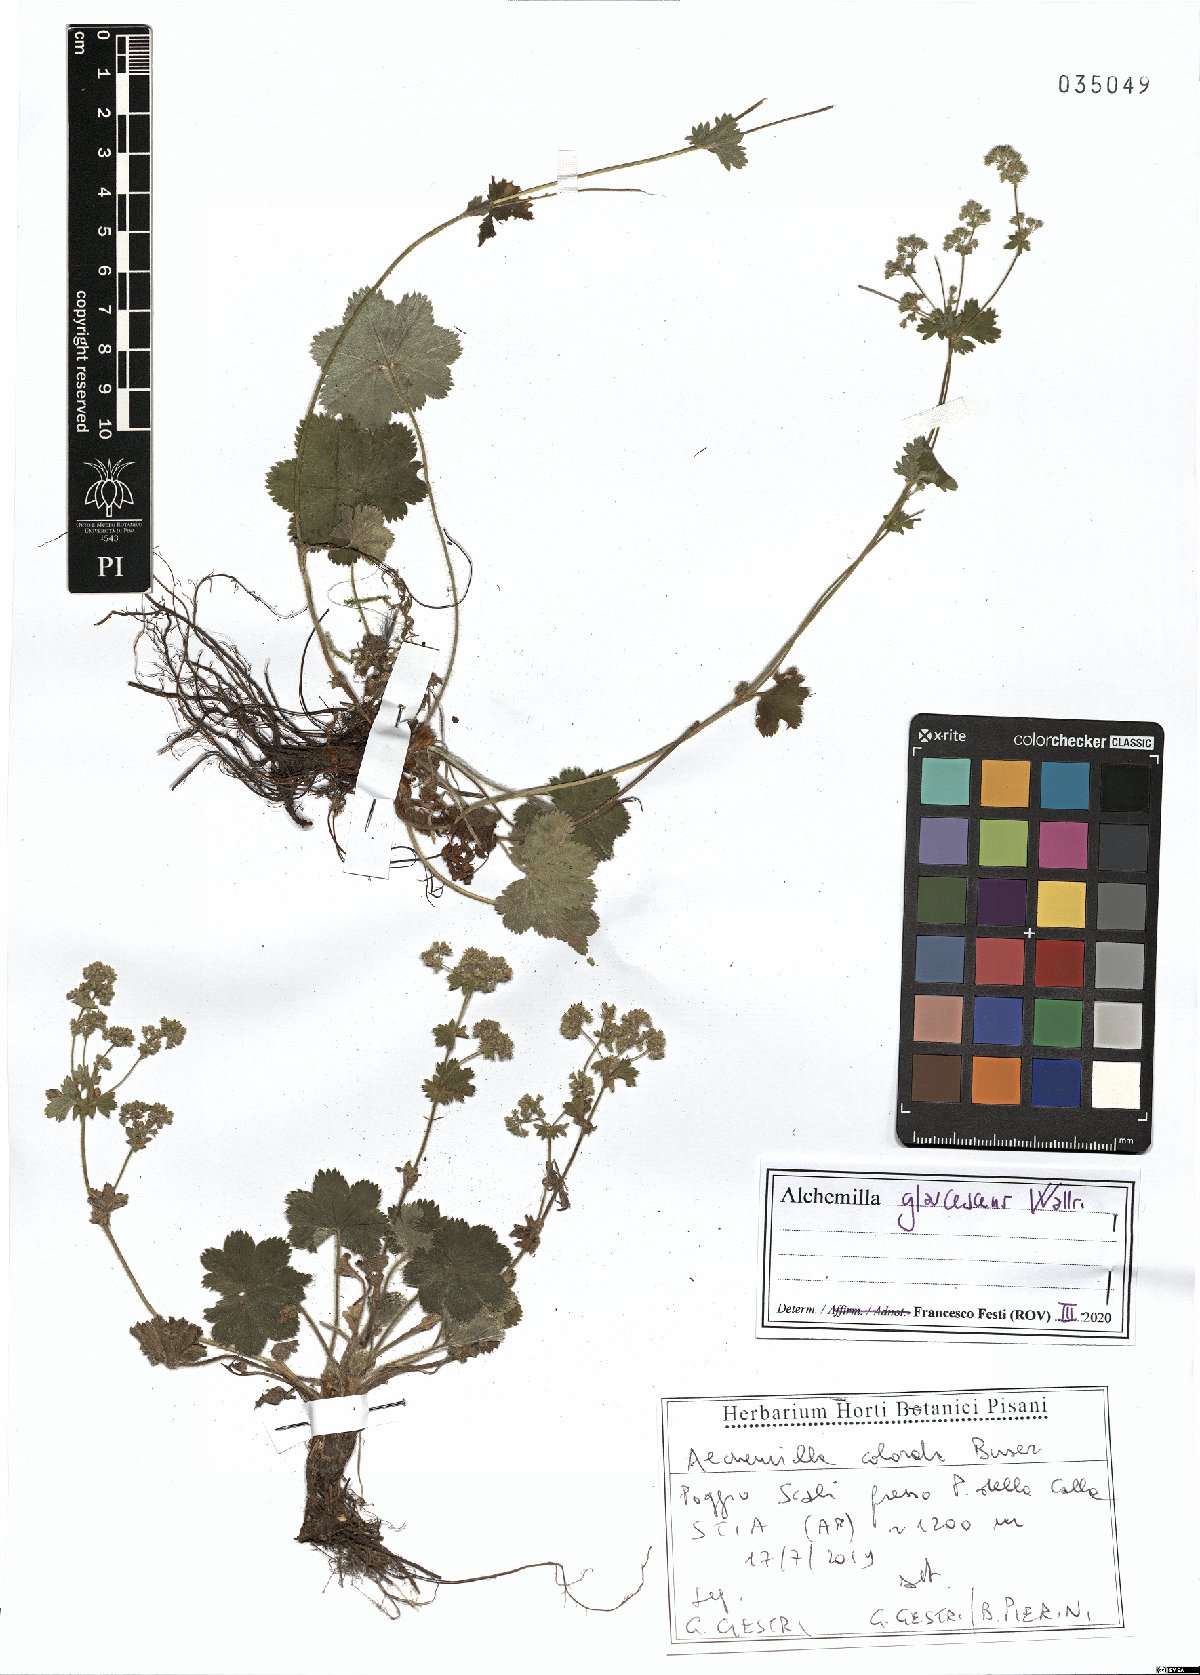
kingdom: Plantae
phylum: Tracheophyta
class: Magnoliopsida
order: Rosales
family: Rosaceae
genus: Alchemilla
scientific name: Alchemilla glaucescens
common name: Silky lady's mantle
